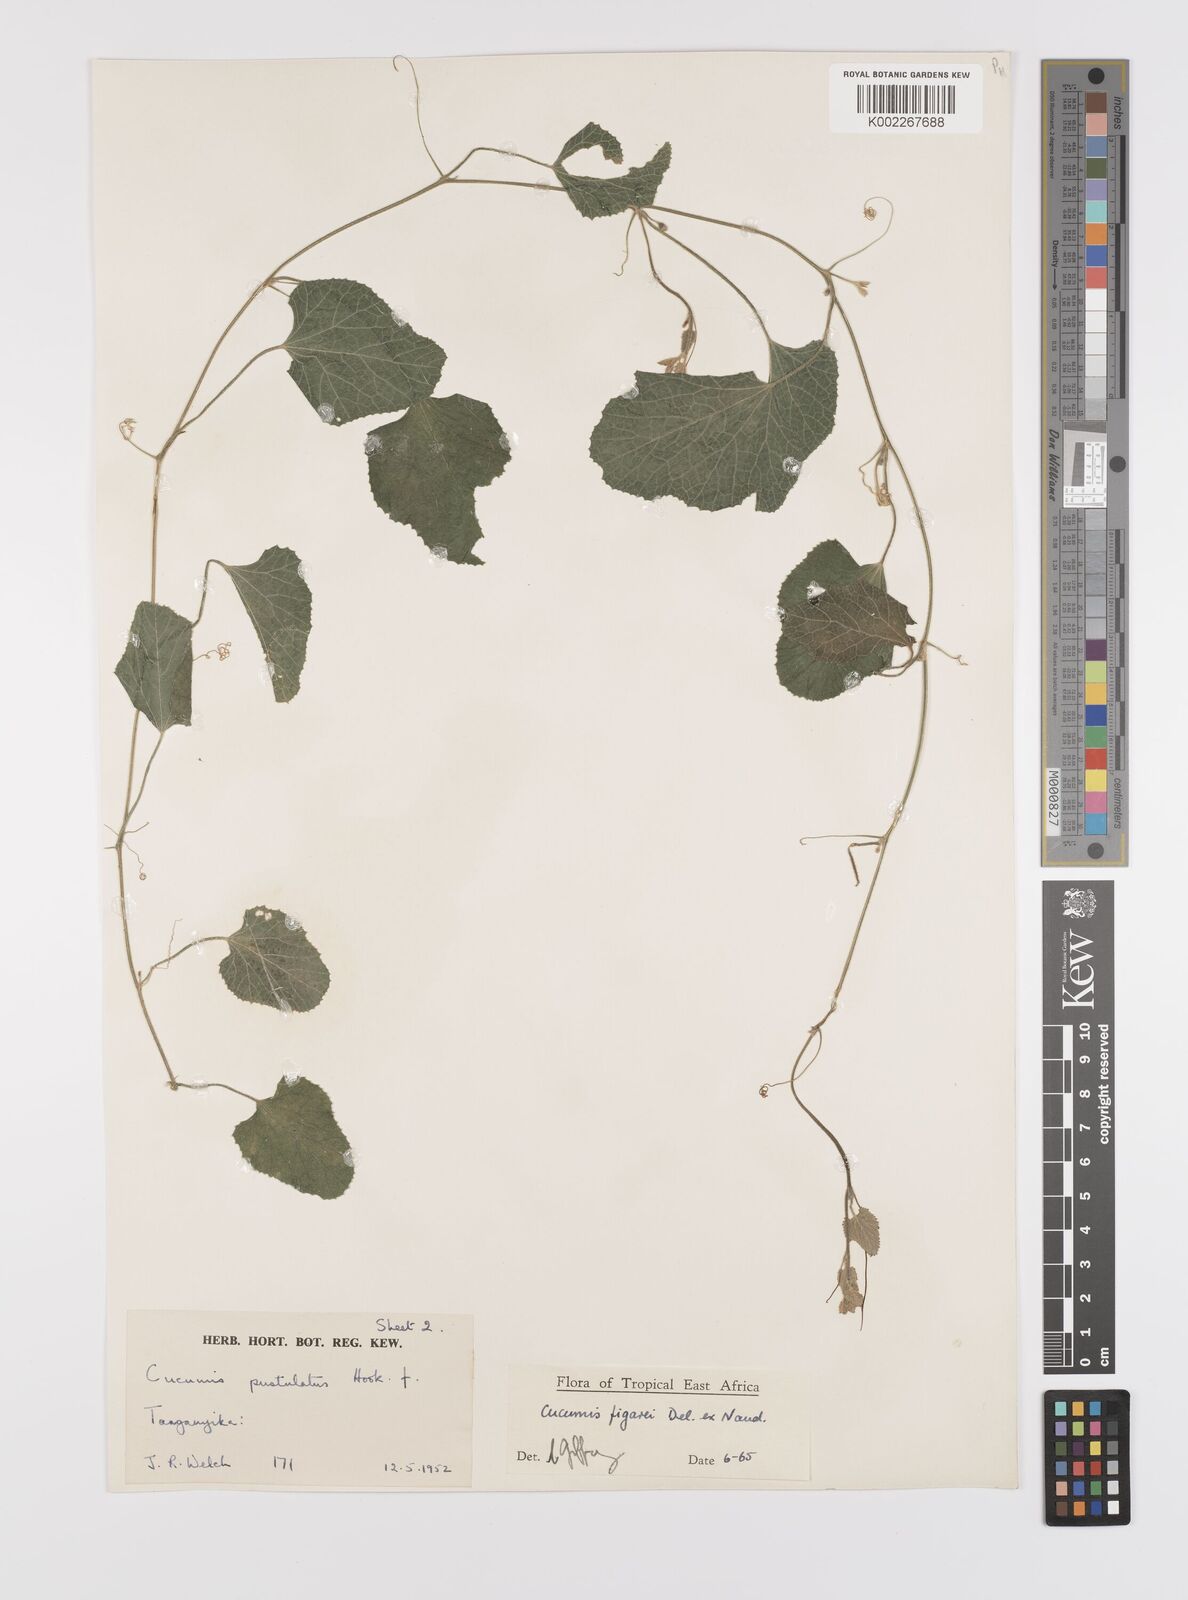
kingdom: Plantae
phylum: Tracheophyta
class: Magnoliopsida
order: Cucurbitales
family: Cucurbitaceae
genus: Cucumis
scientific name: Cucumis
